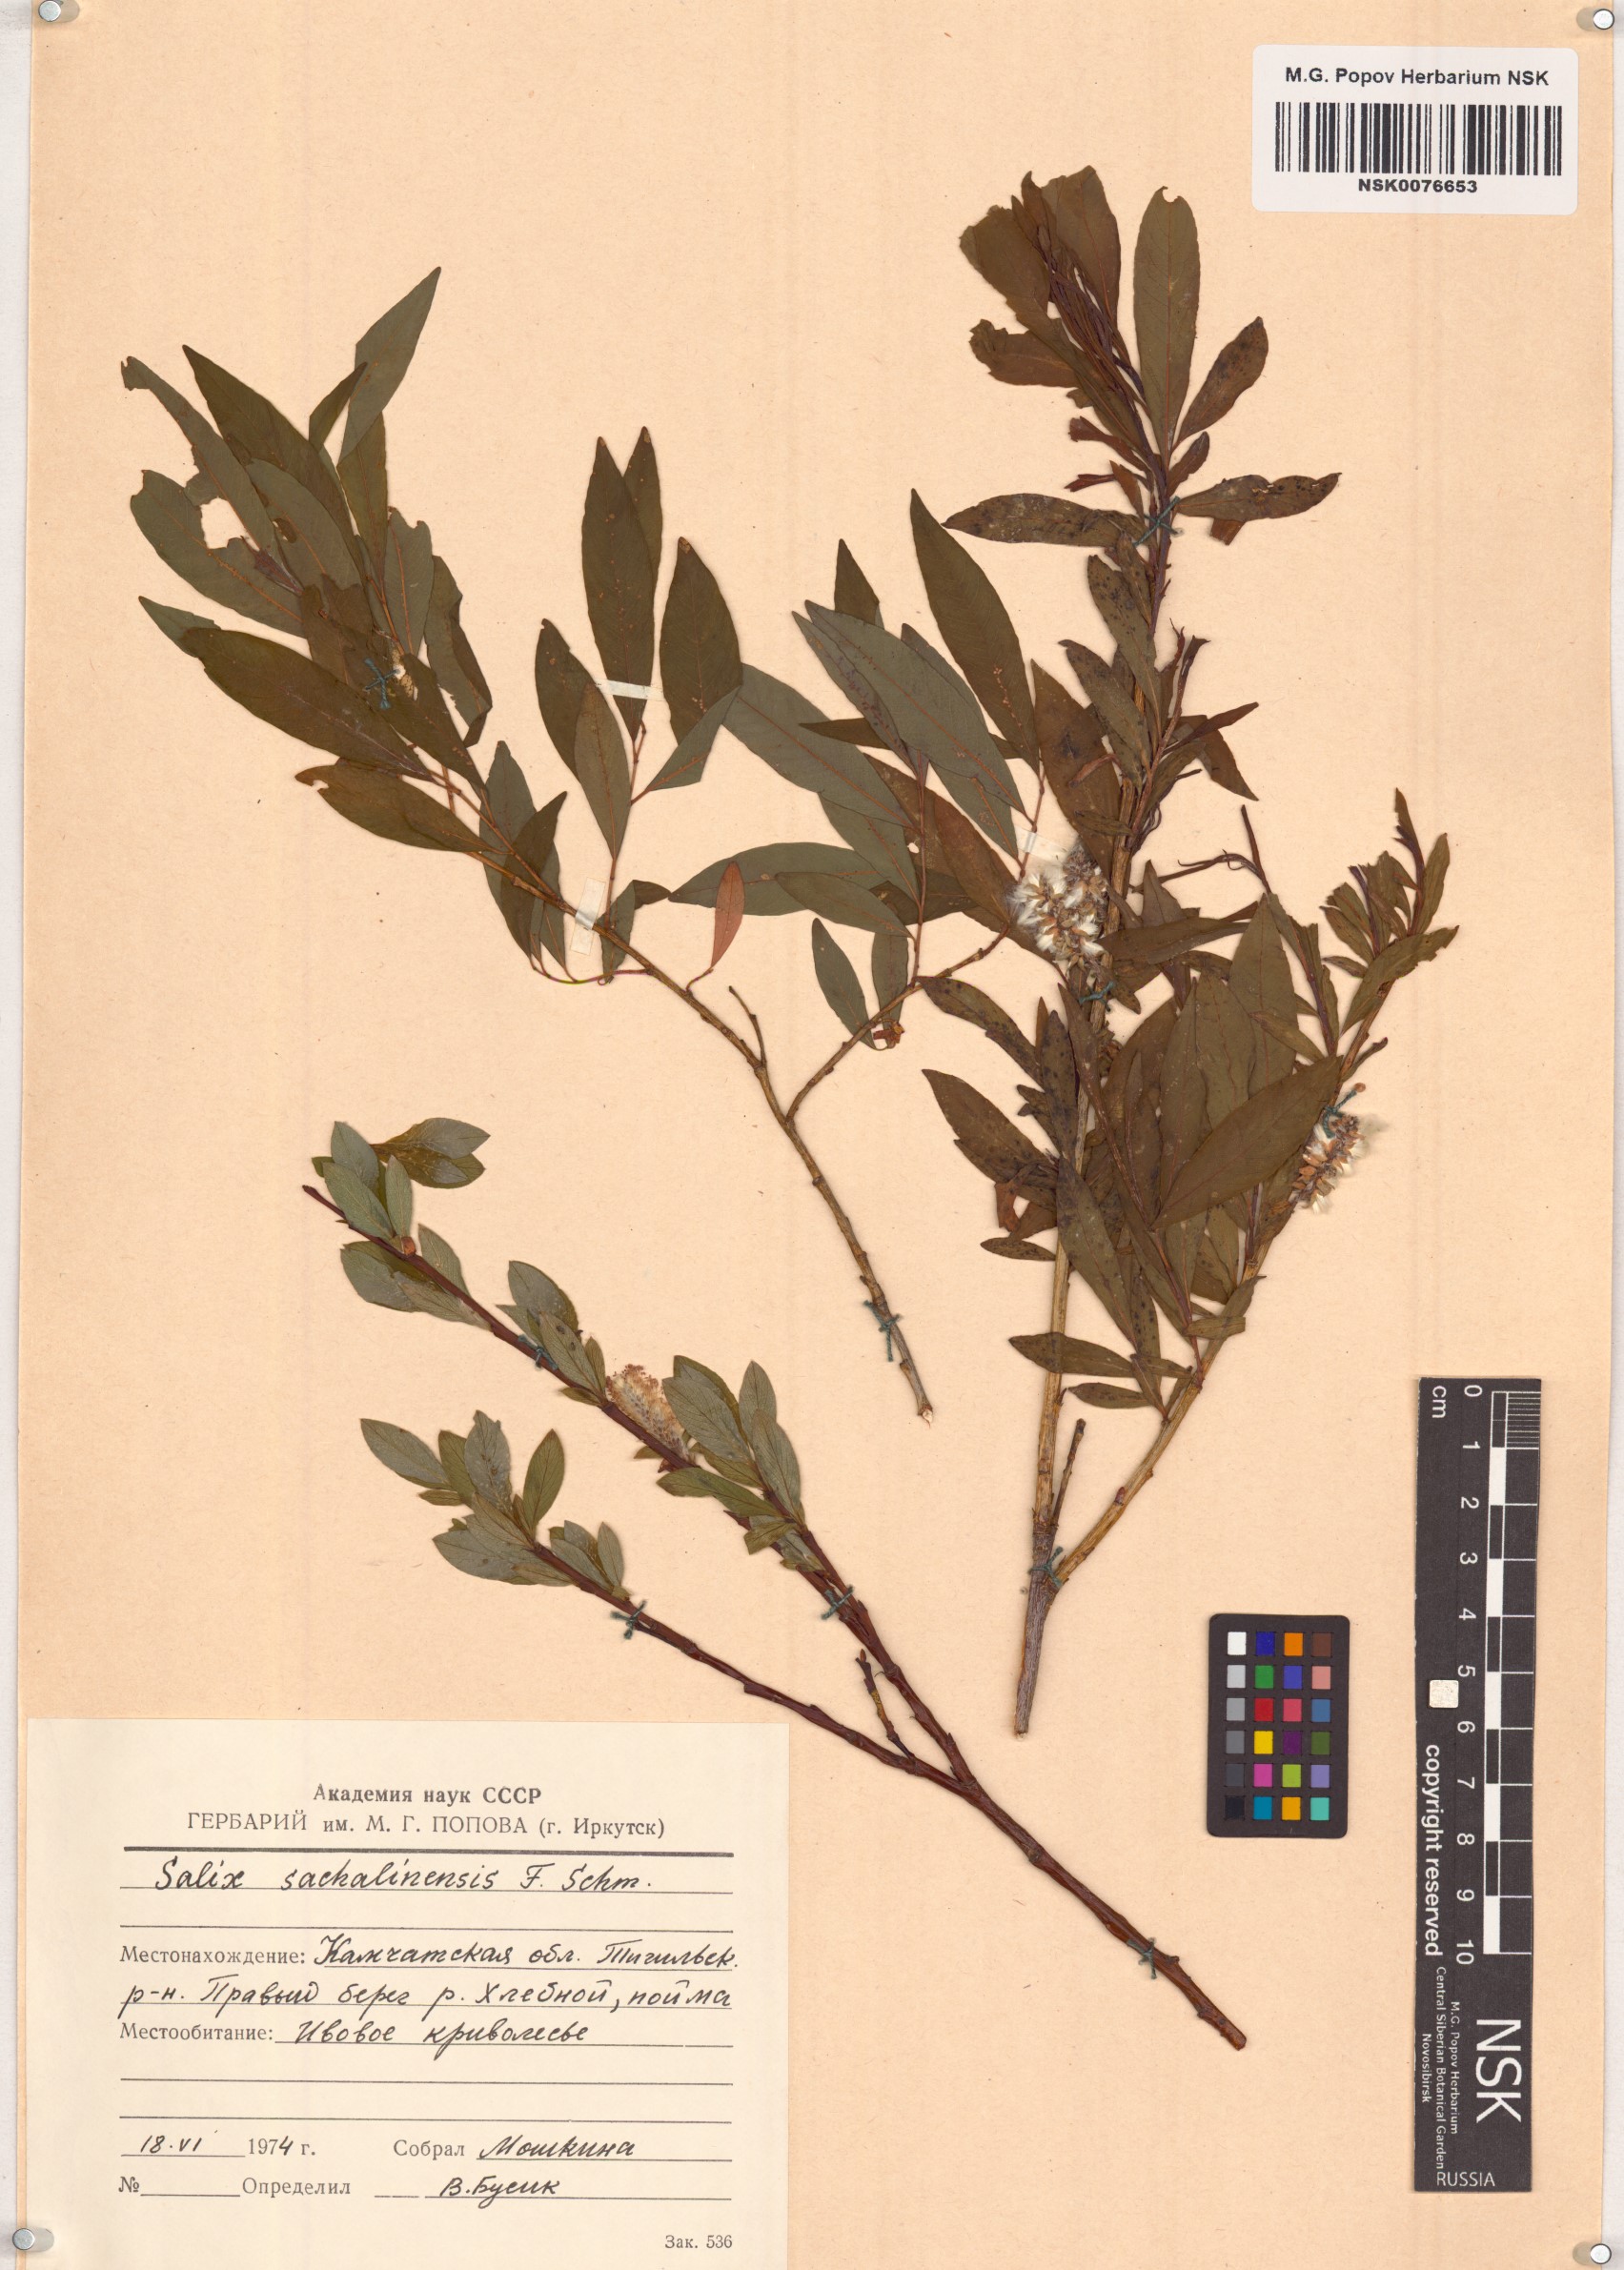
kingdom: Plantae
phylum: Tracheophyta
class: Magnoliopsida
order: Malpighiales
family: Salicaceae
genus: Salix
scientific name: Salix udensis
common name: Sachalin willow
